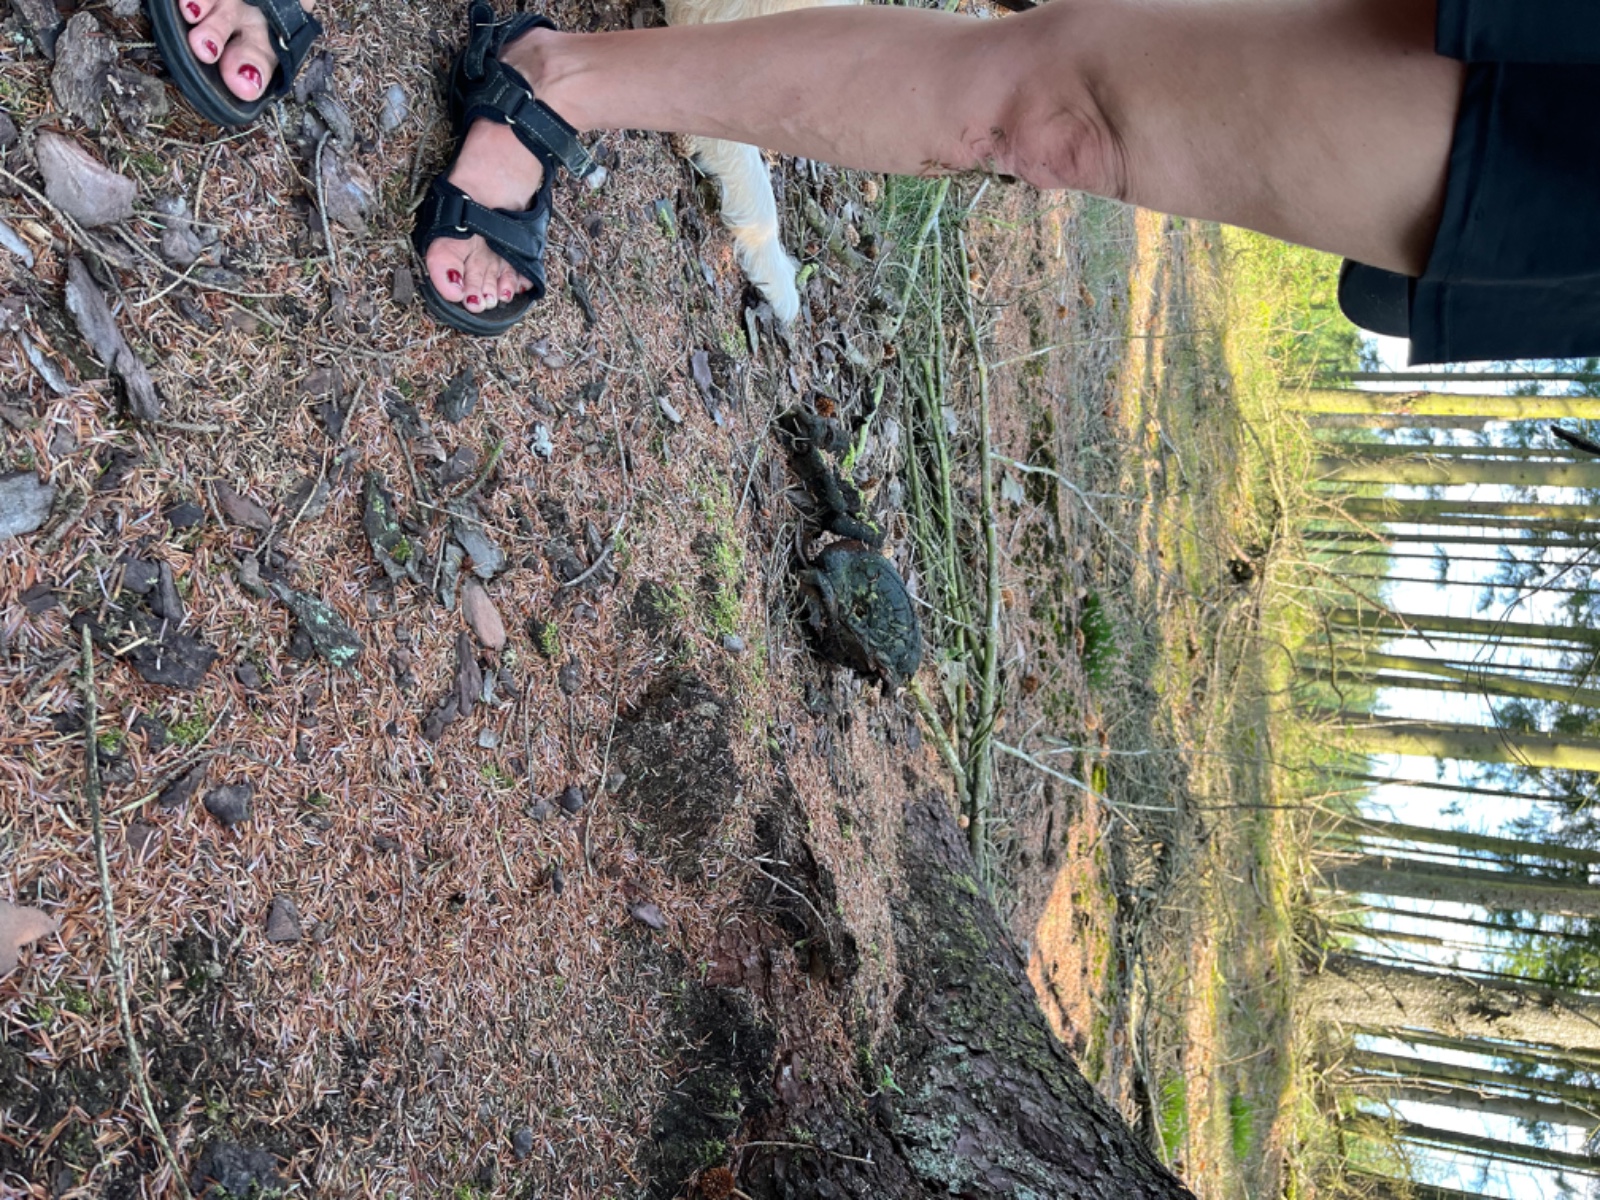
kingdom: Fungi
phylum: Basidiomycota
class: Agaricomycetes
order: Boletales
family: Boletaceae
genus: Buchwaldoboletus
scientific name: Buchwaldoboletus lignicola
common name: stødrørhat
